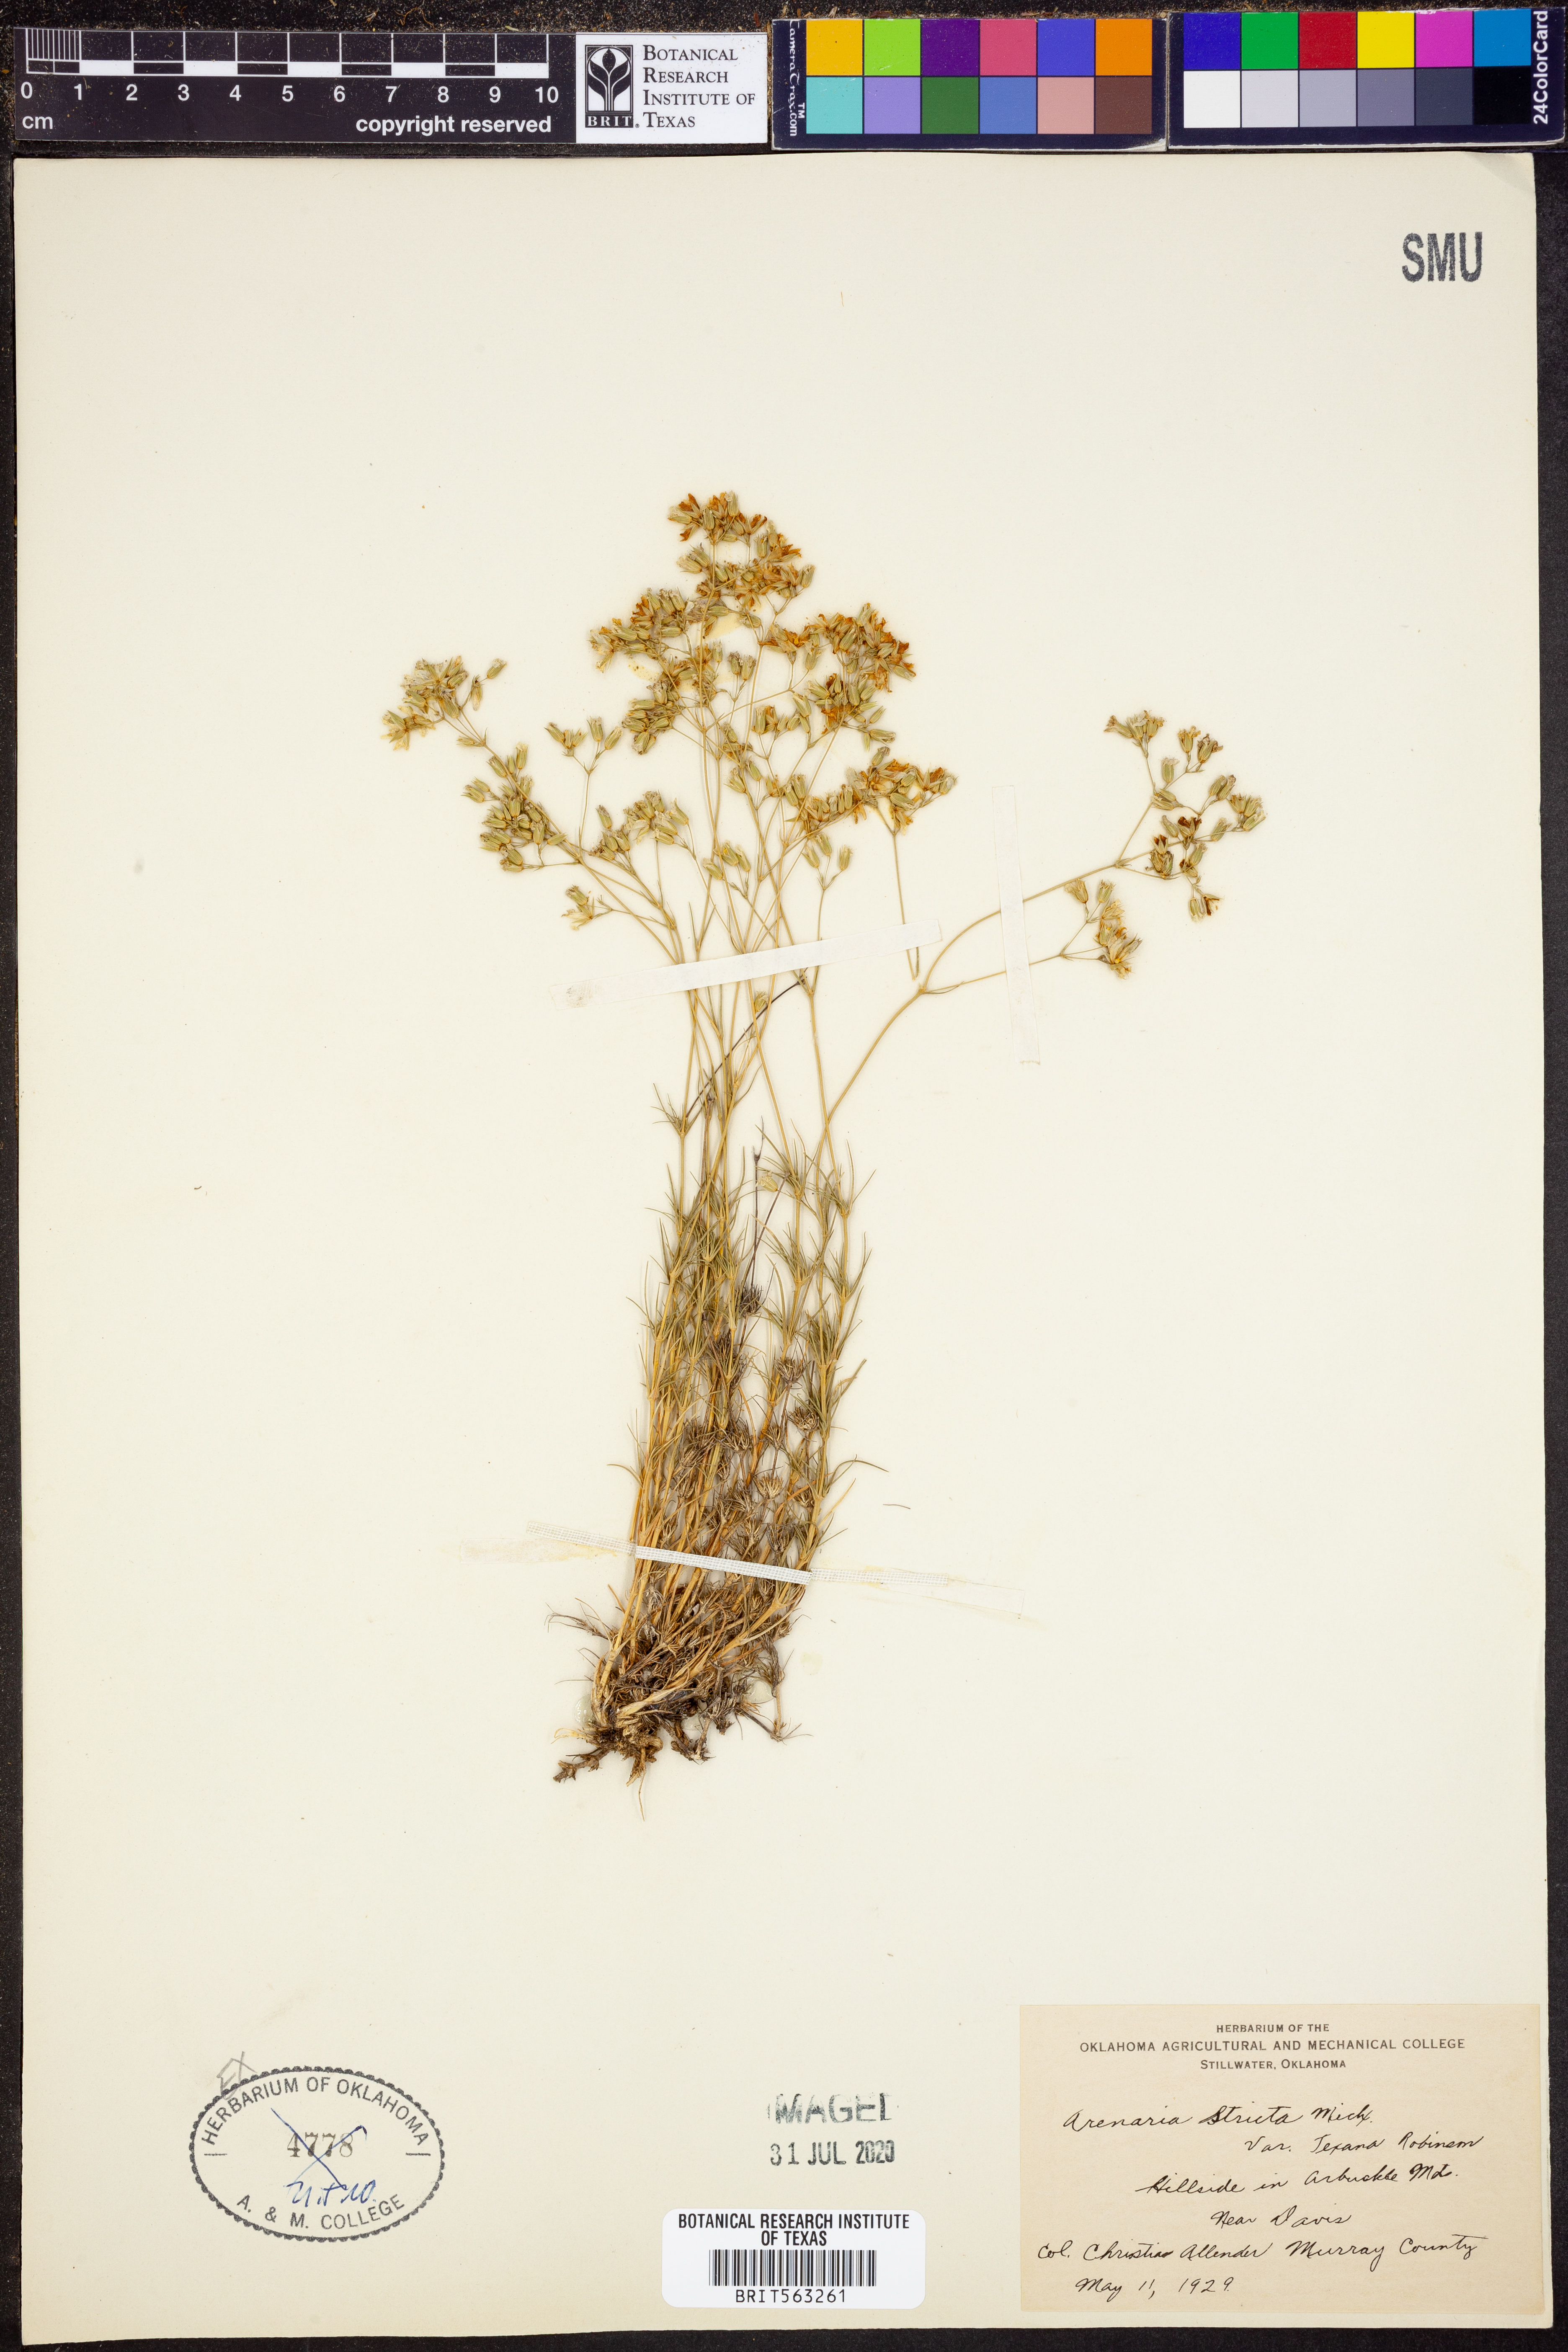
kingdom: Plantae
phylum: Tracheophyta
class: Magnoliopsida
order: Caryophyllales
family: Caryophyllaceae
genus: Sabulina
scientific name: Sabulina michauxii
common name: Michaux's stitchwort
